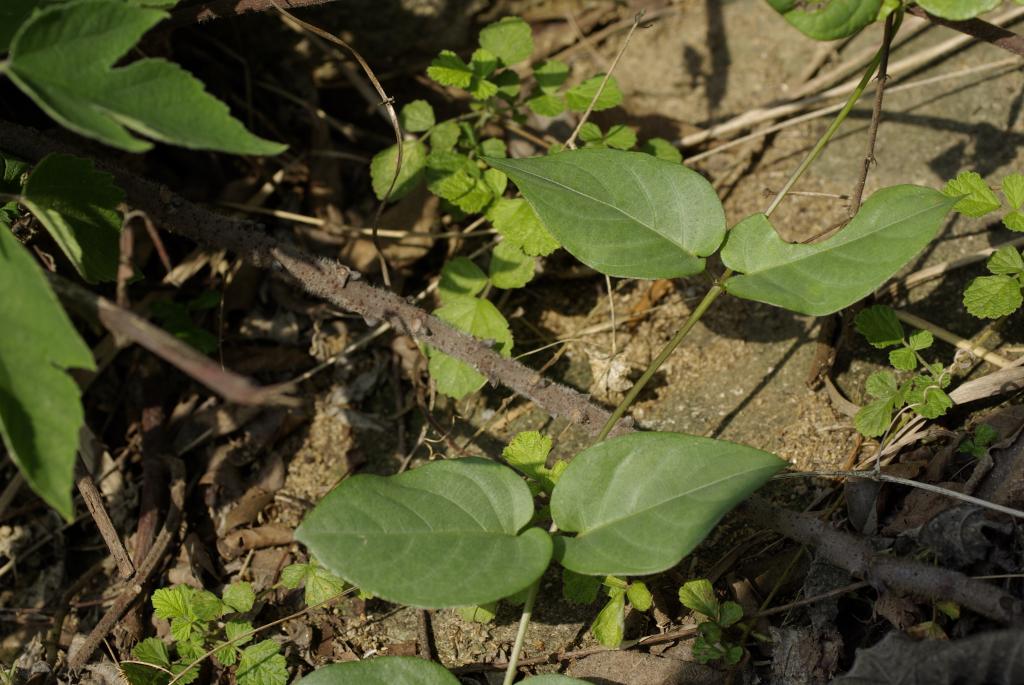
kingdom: Plantae
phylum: Tracheophyta
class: Magnoliopsida
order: Gentianales
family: Rubiaceae
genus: Paederia
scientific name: Paederia foetida
